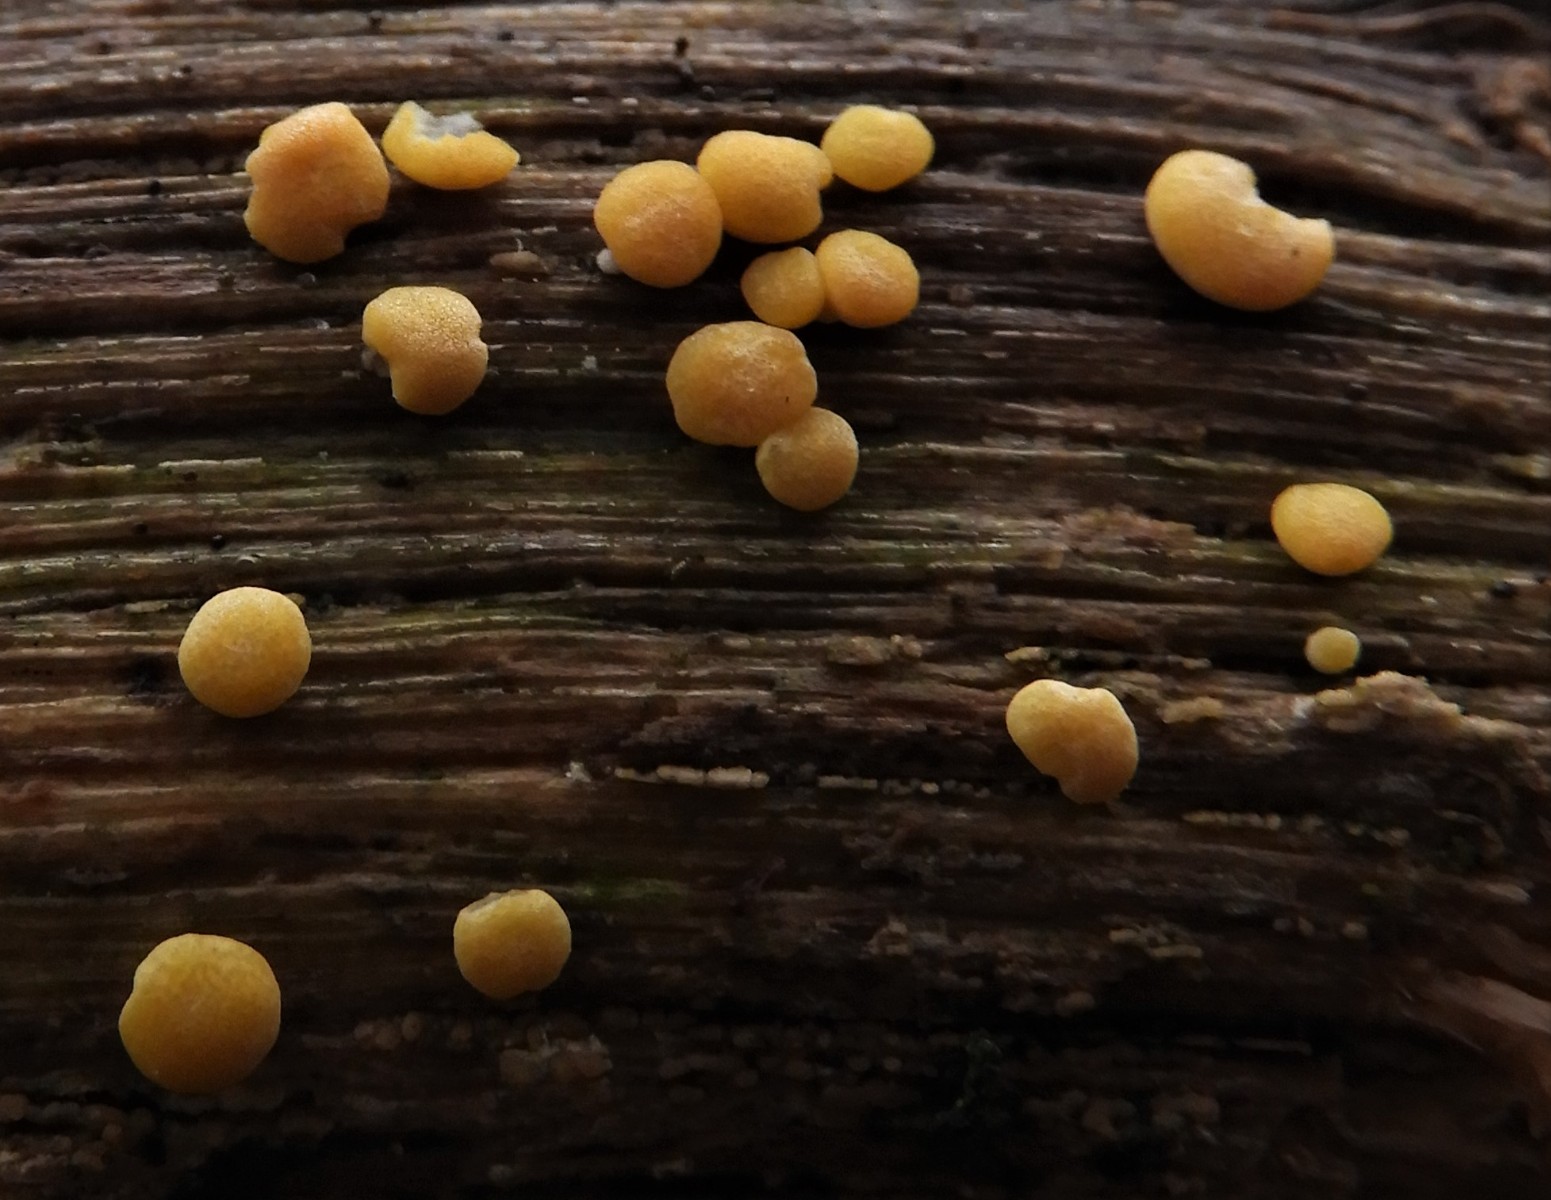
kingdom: Fungi
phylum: Ascomycota
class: Sordariomycetes
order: Hypocreales
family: Hypocreaceae
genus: Trichoderma
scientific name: Trichoderma
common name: kødkerne
